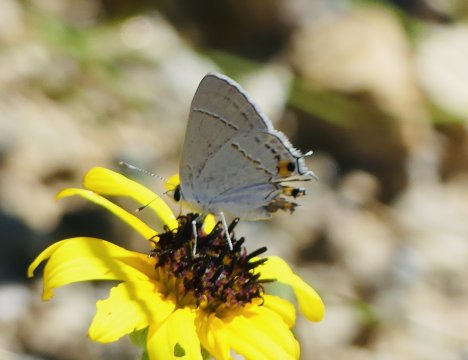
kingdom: Animalia
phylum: Arthropoda
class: Insecta
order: Lepidoptera
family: Lycaenidae
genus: Strymon
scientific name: Strymon melinus
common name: Gray Hairstreak
